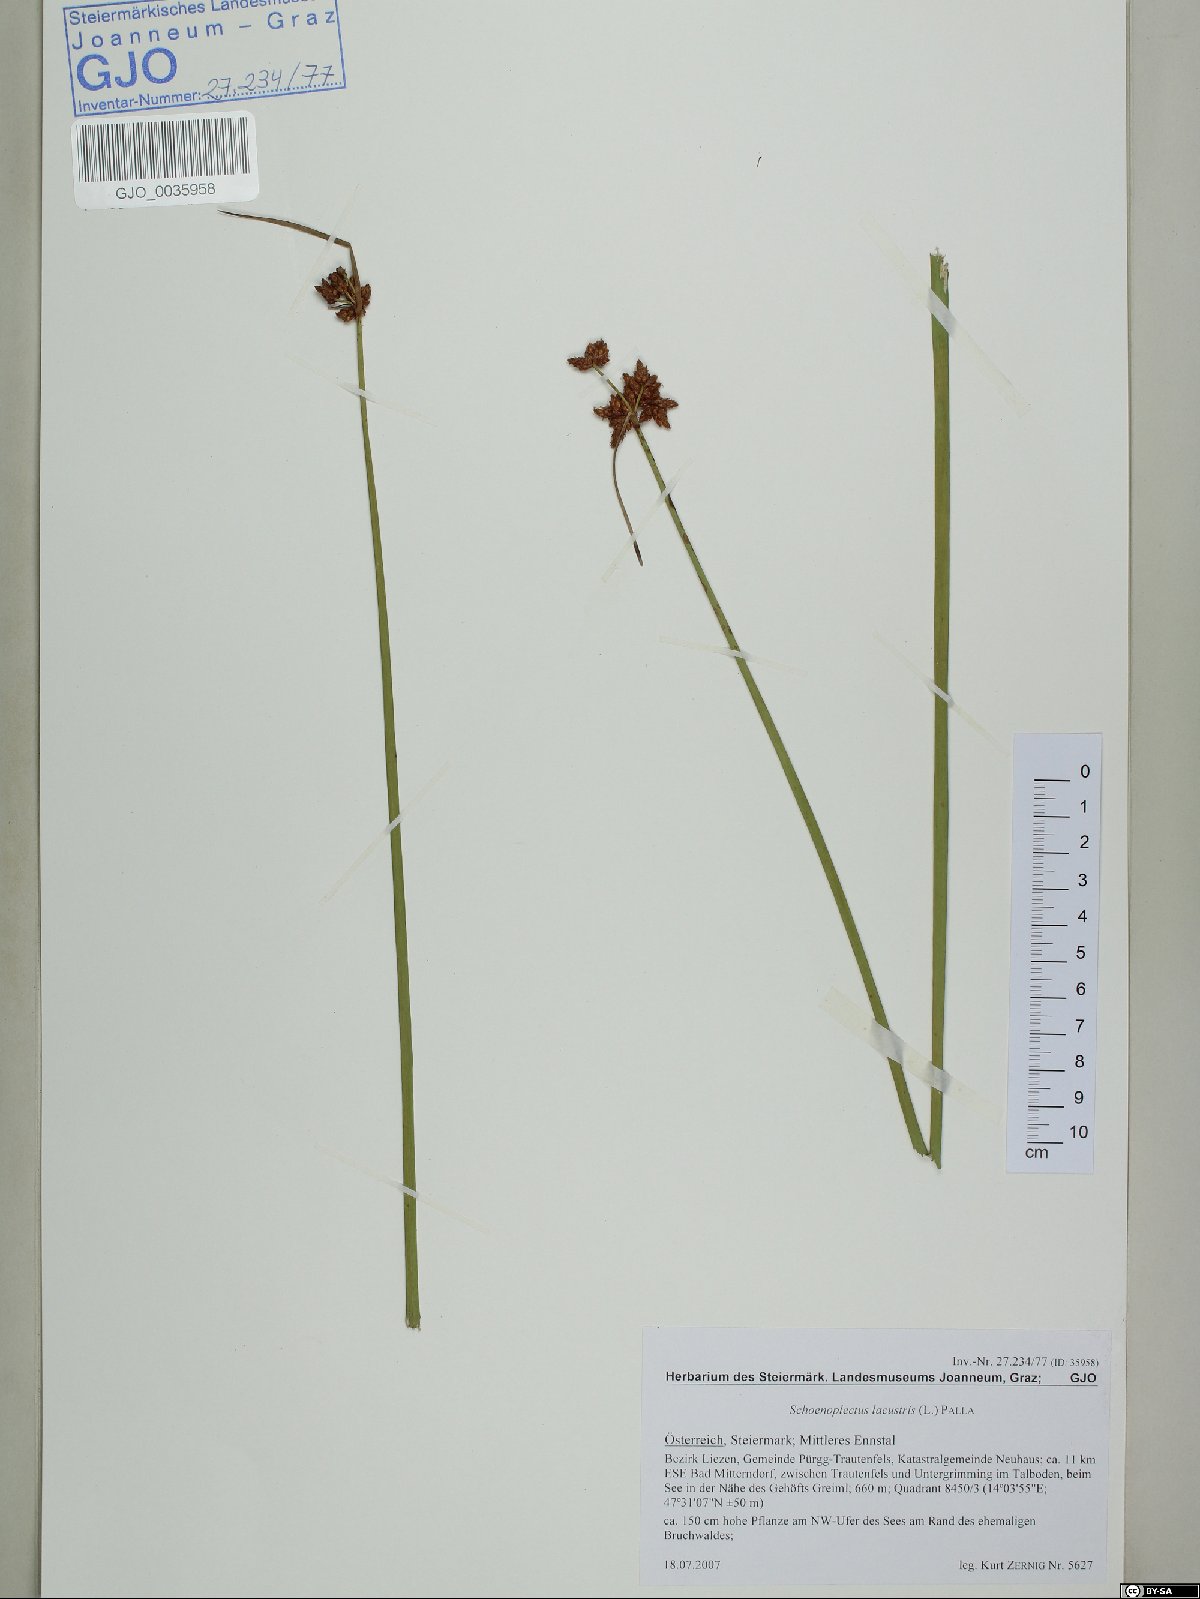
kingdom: Plantae
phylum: Tracheophyta
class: Liliopsida
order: Poales
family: Cyperaceae
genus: Schoenoplectus
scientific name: Schoenoplectus lacustris
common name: Common club-rush
